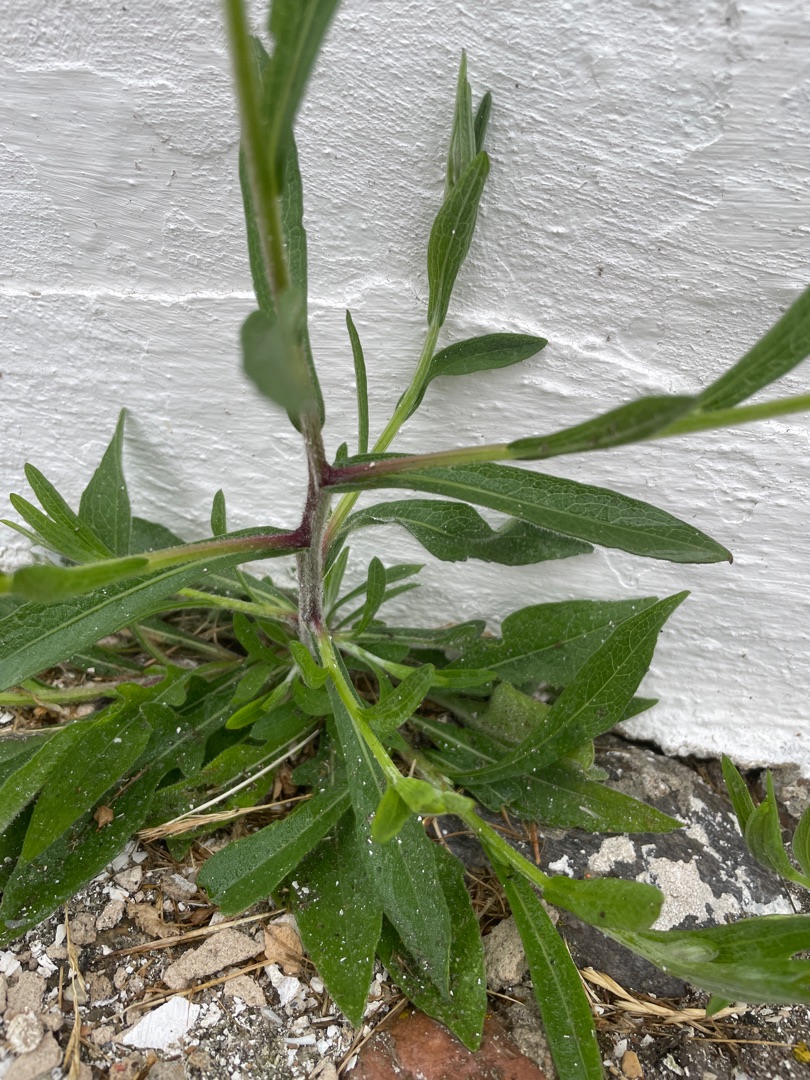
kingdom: Plantae
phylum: Tracheophyta
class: Magnoliopsida
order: Asterales
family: Asteraceae
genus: Centaurea
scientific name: Centaurea jacea
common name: Almindelig knopurt
